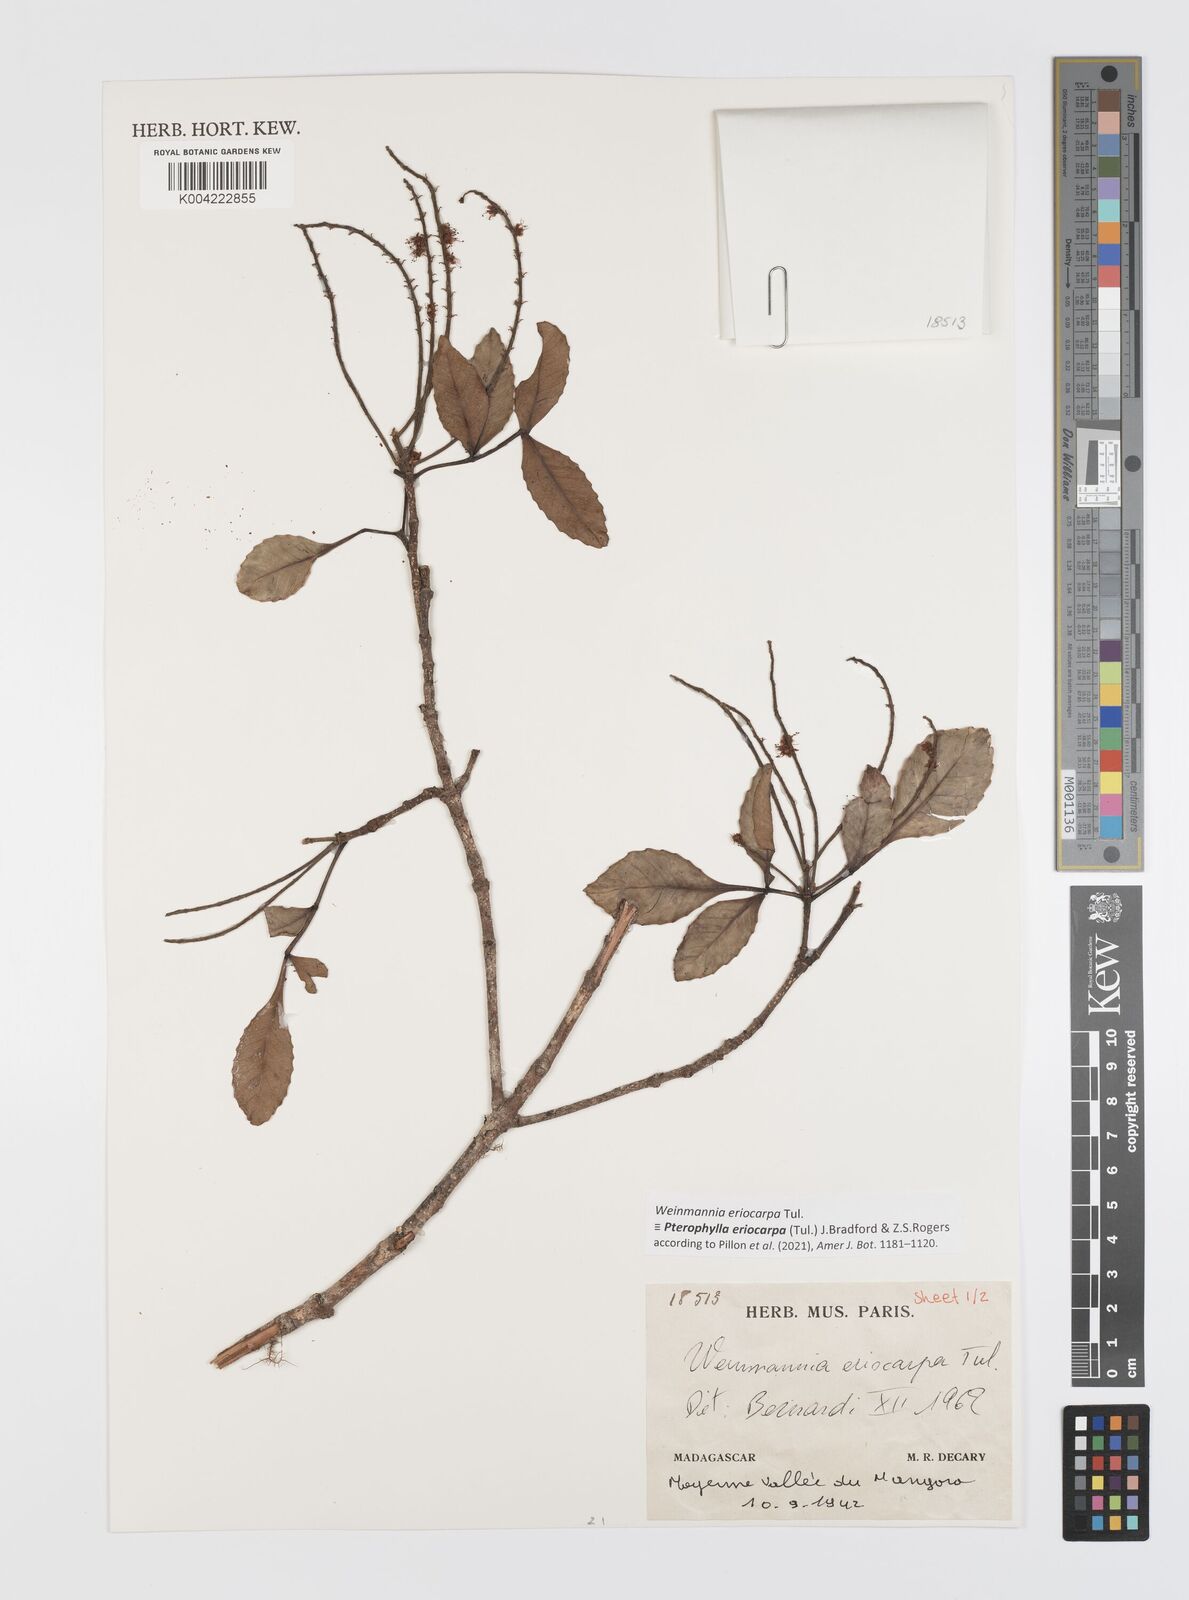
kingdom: Plantae
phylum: Tracheophyta
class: Magnoliopsida
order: Oxalidales
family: Cunoniaceae
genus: Pterophylla
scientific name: Pterophylla eriocarpa
